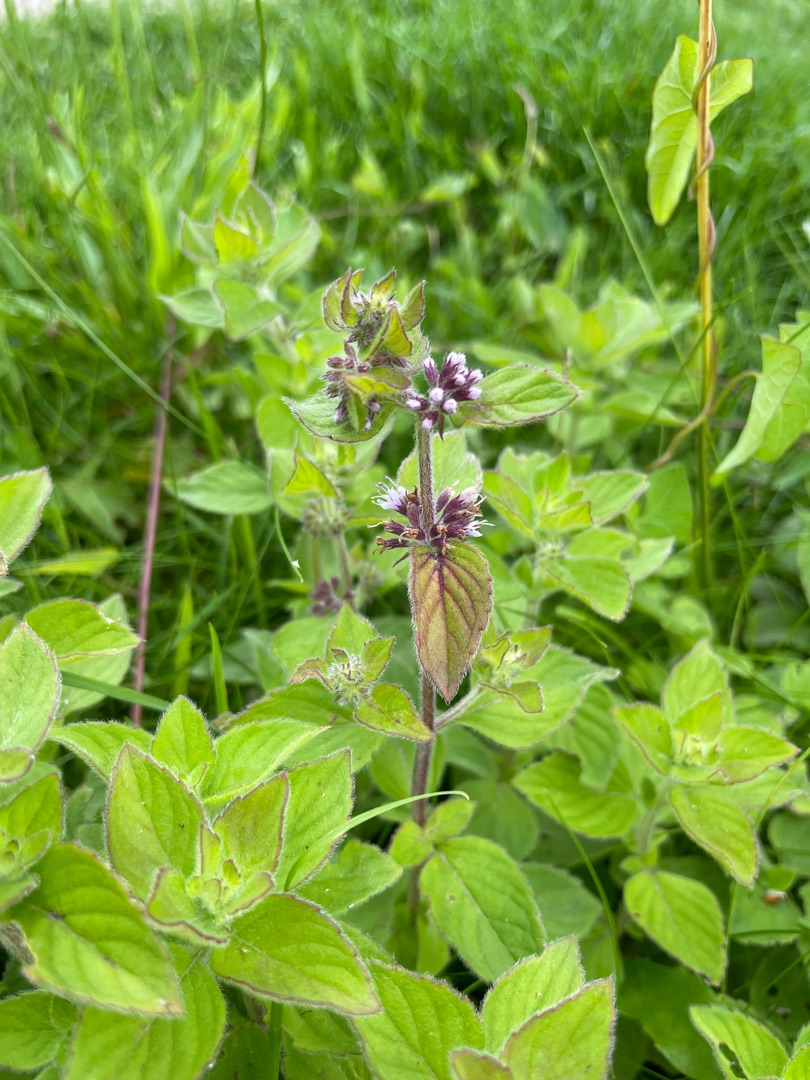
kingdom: Plantae
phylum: Tracheophyta
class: Magnoliopsida
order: Lamiales
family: Lamiaceae
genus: Mentha
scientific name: Mentha aquatica
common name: Vand-mynte
